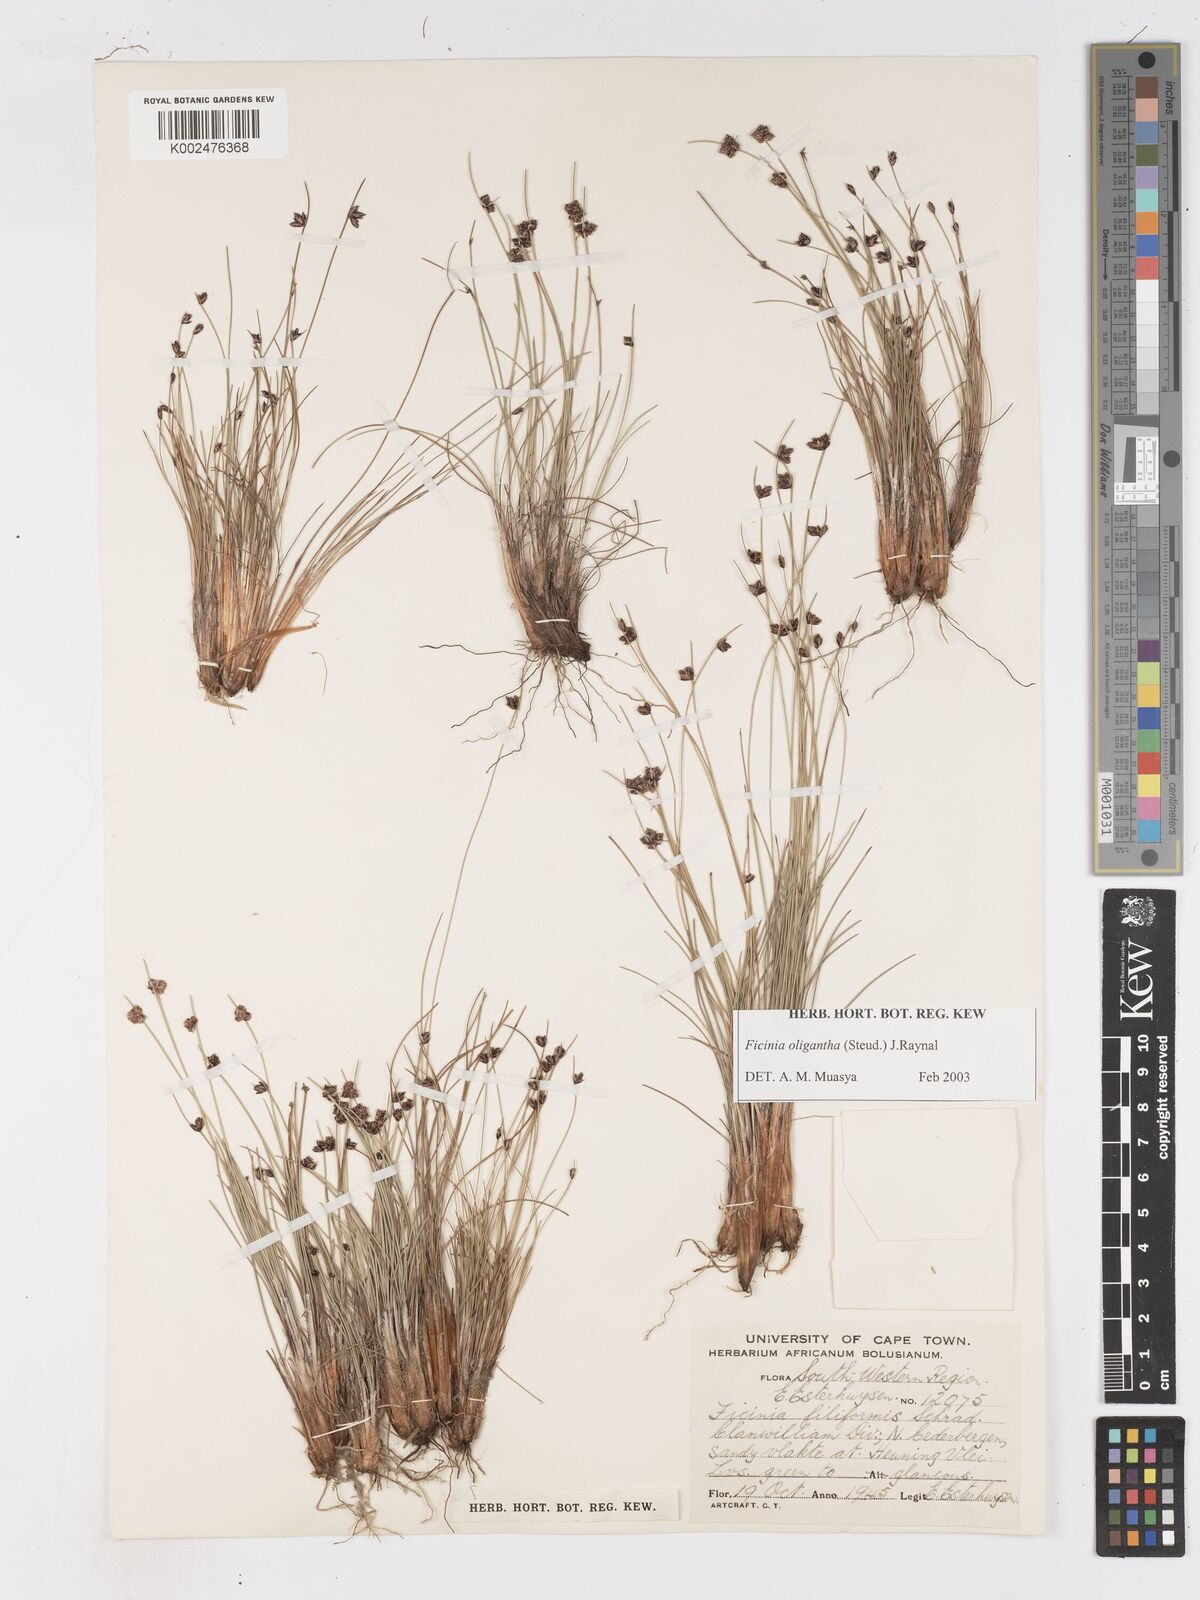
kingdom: Plantae
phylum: Tracheophyta
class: Liliopsida
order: Poales
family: Cyperaceae
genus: Ficinia
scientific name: Ficinia oligantha
